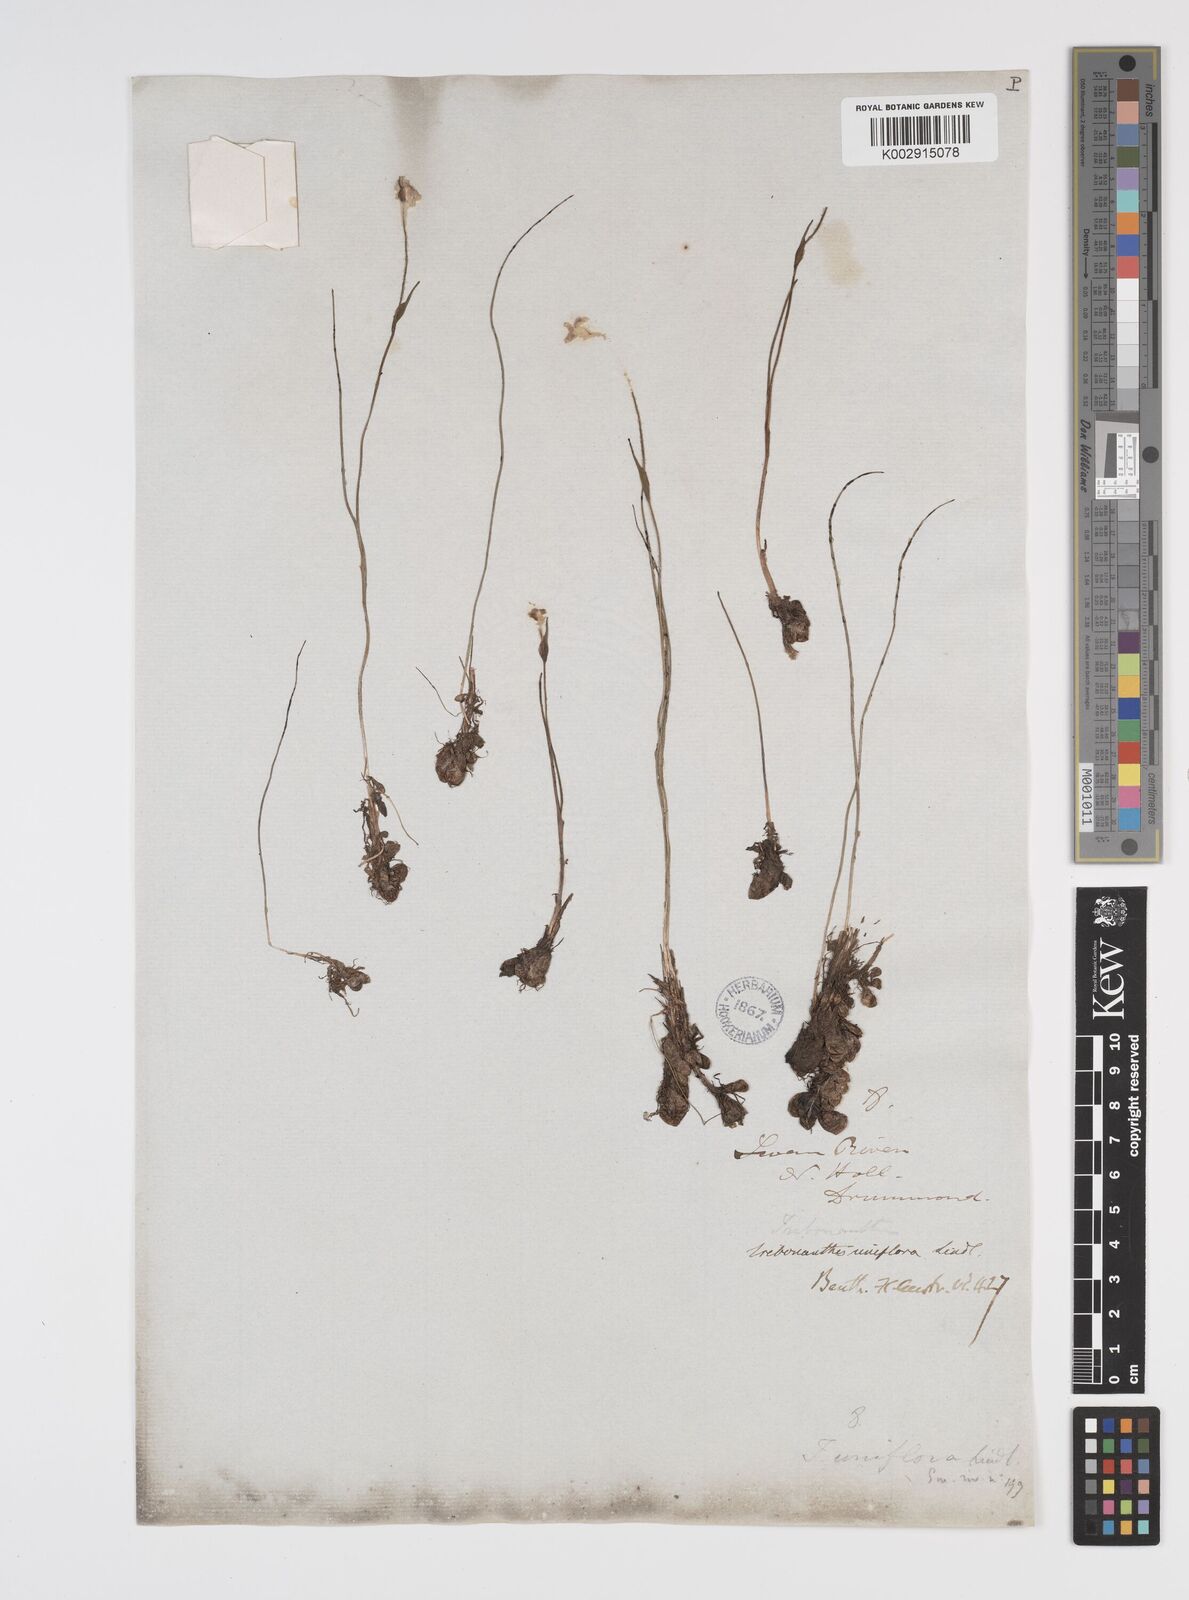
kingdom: Plantae
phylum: Tracheophyta
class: Liliopsida
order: Commelinales
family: Haemodoraceae
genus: Tribonanthes
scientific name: Tribonanthes uniflora
